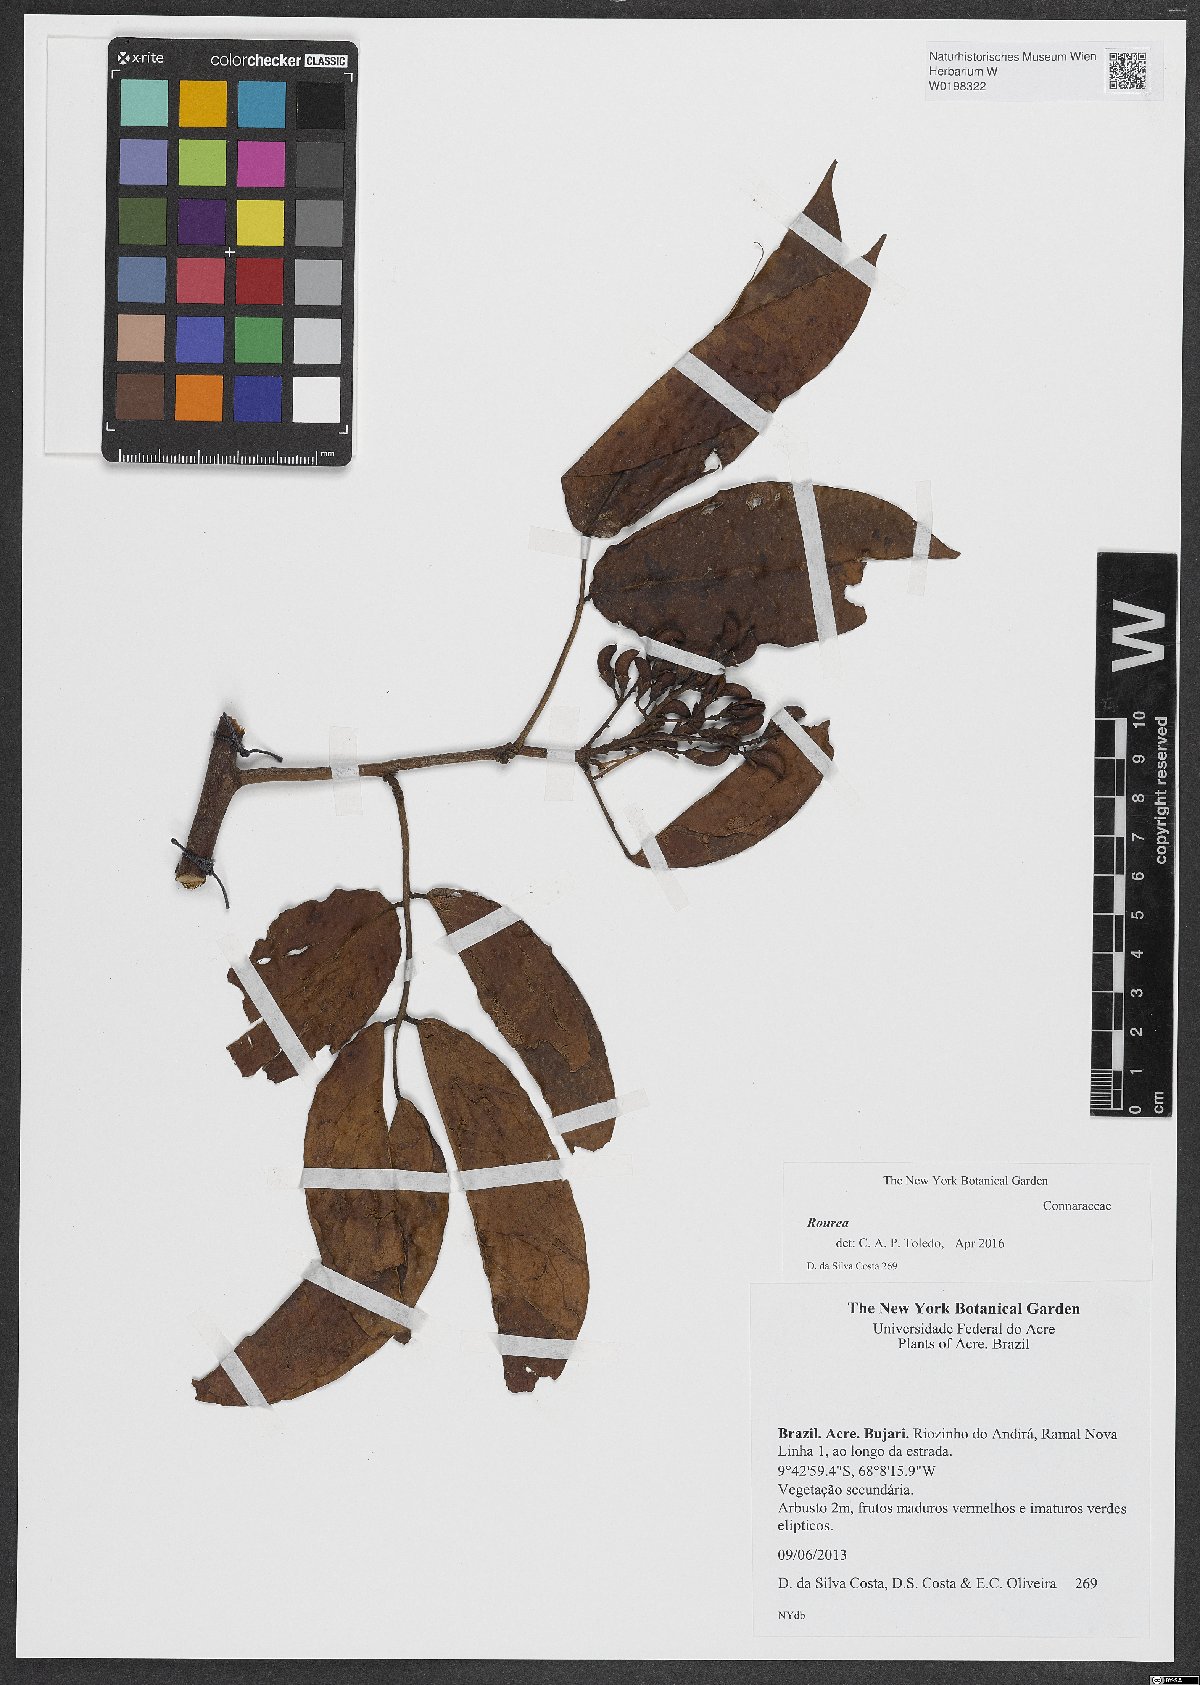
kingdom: Plantae
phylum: Tracheophyta
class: Magnoliopsida
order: Oxalidales
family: Connaraceae
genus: Rourea
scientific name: Rourea
